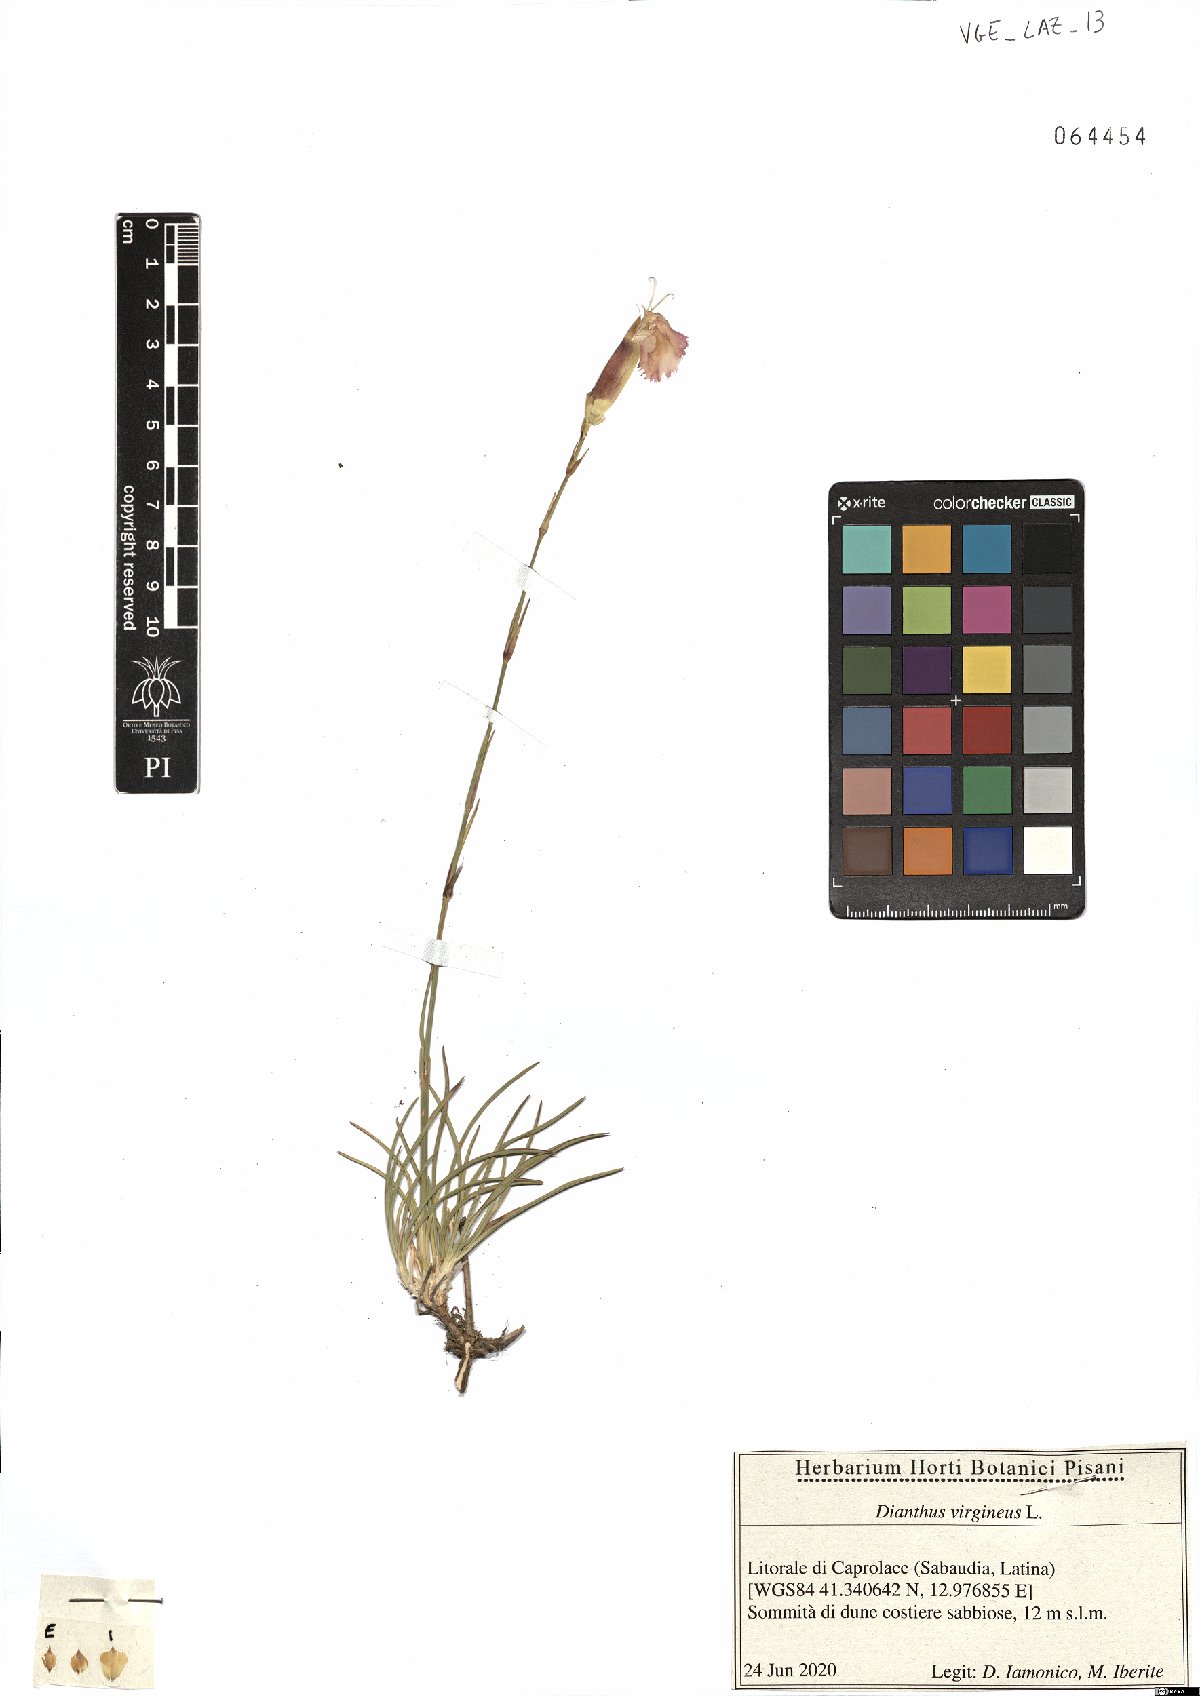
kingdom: Plantae
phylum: Tracheophyta
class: Magnoliopsida
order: Caryophyllales
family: Caryophyllaceae
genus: Dianthus
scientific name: Dianthus virgineus
